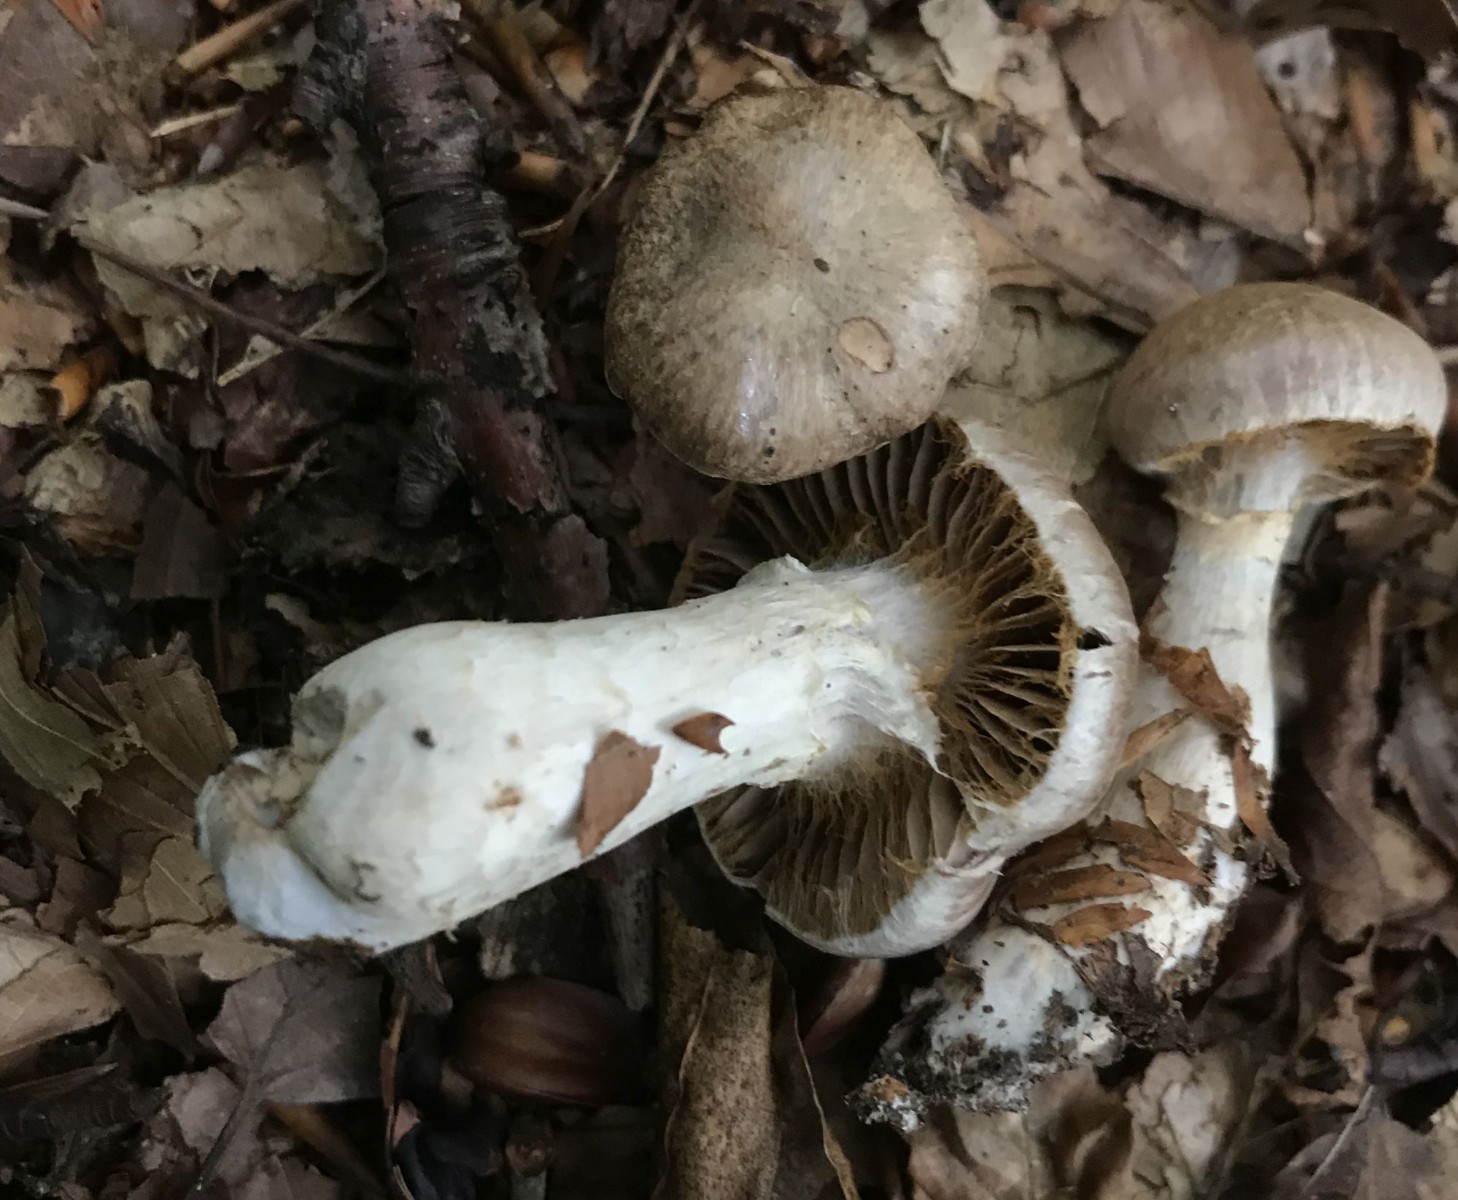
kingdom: Fungi
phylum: Basidiomycota
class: Agaricomycetes
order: Agaricales
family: Cortinariaceae
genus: Cortinarius
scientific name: Cortinarius torvus
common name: champignonagtig slørhat
